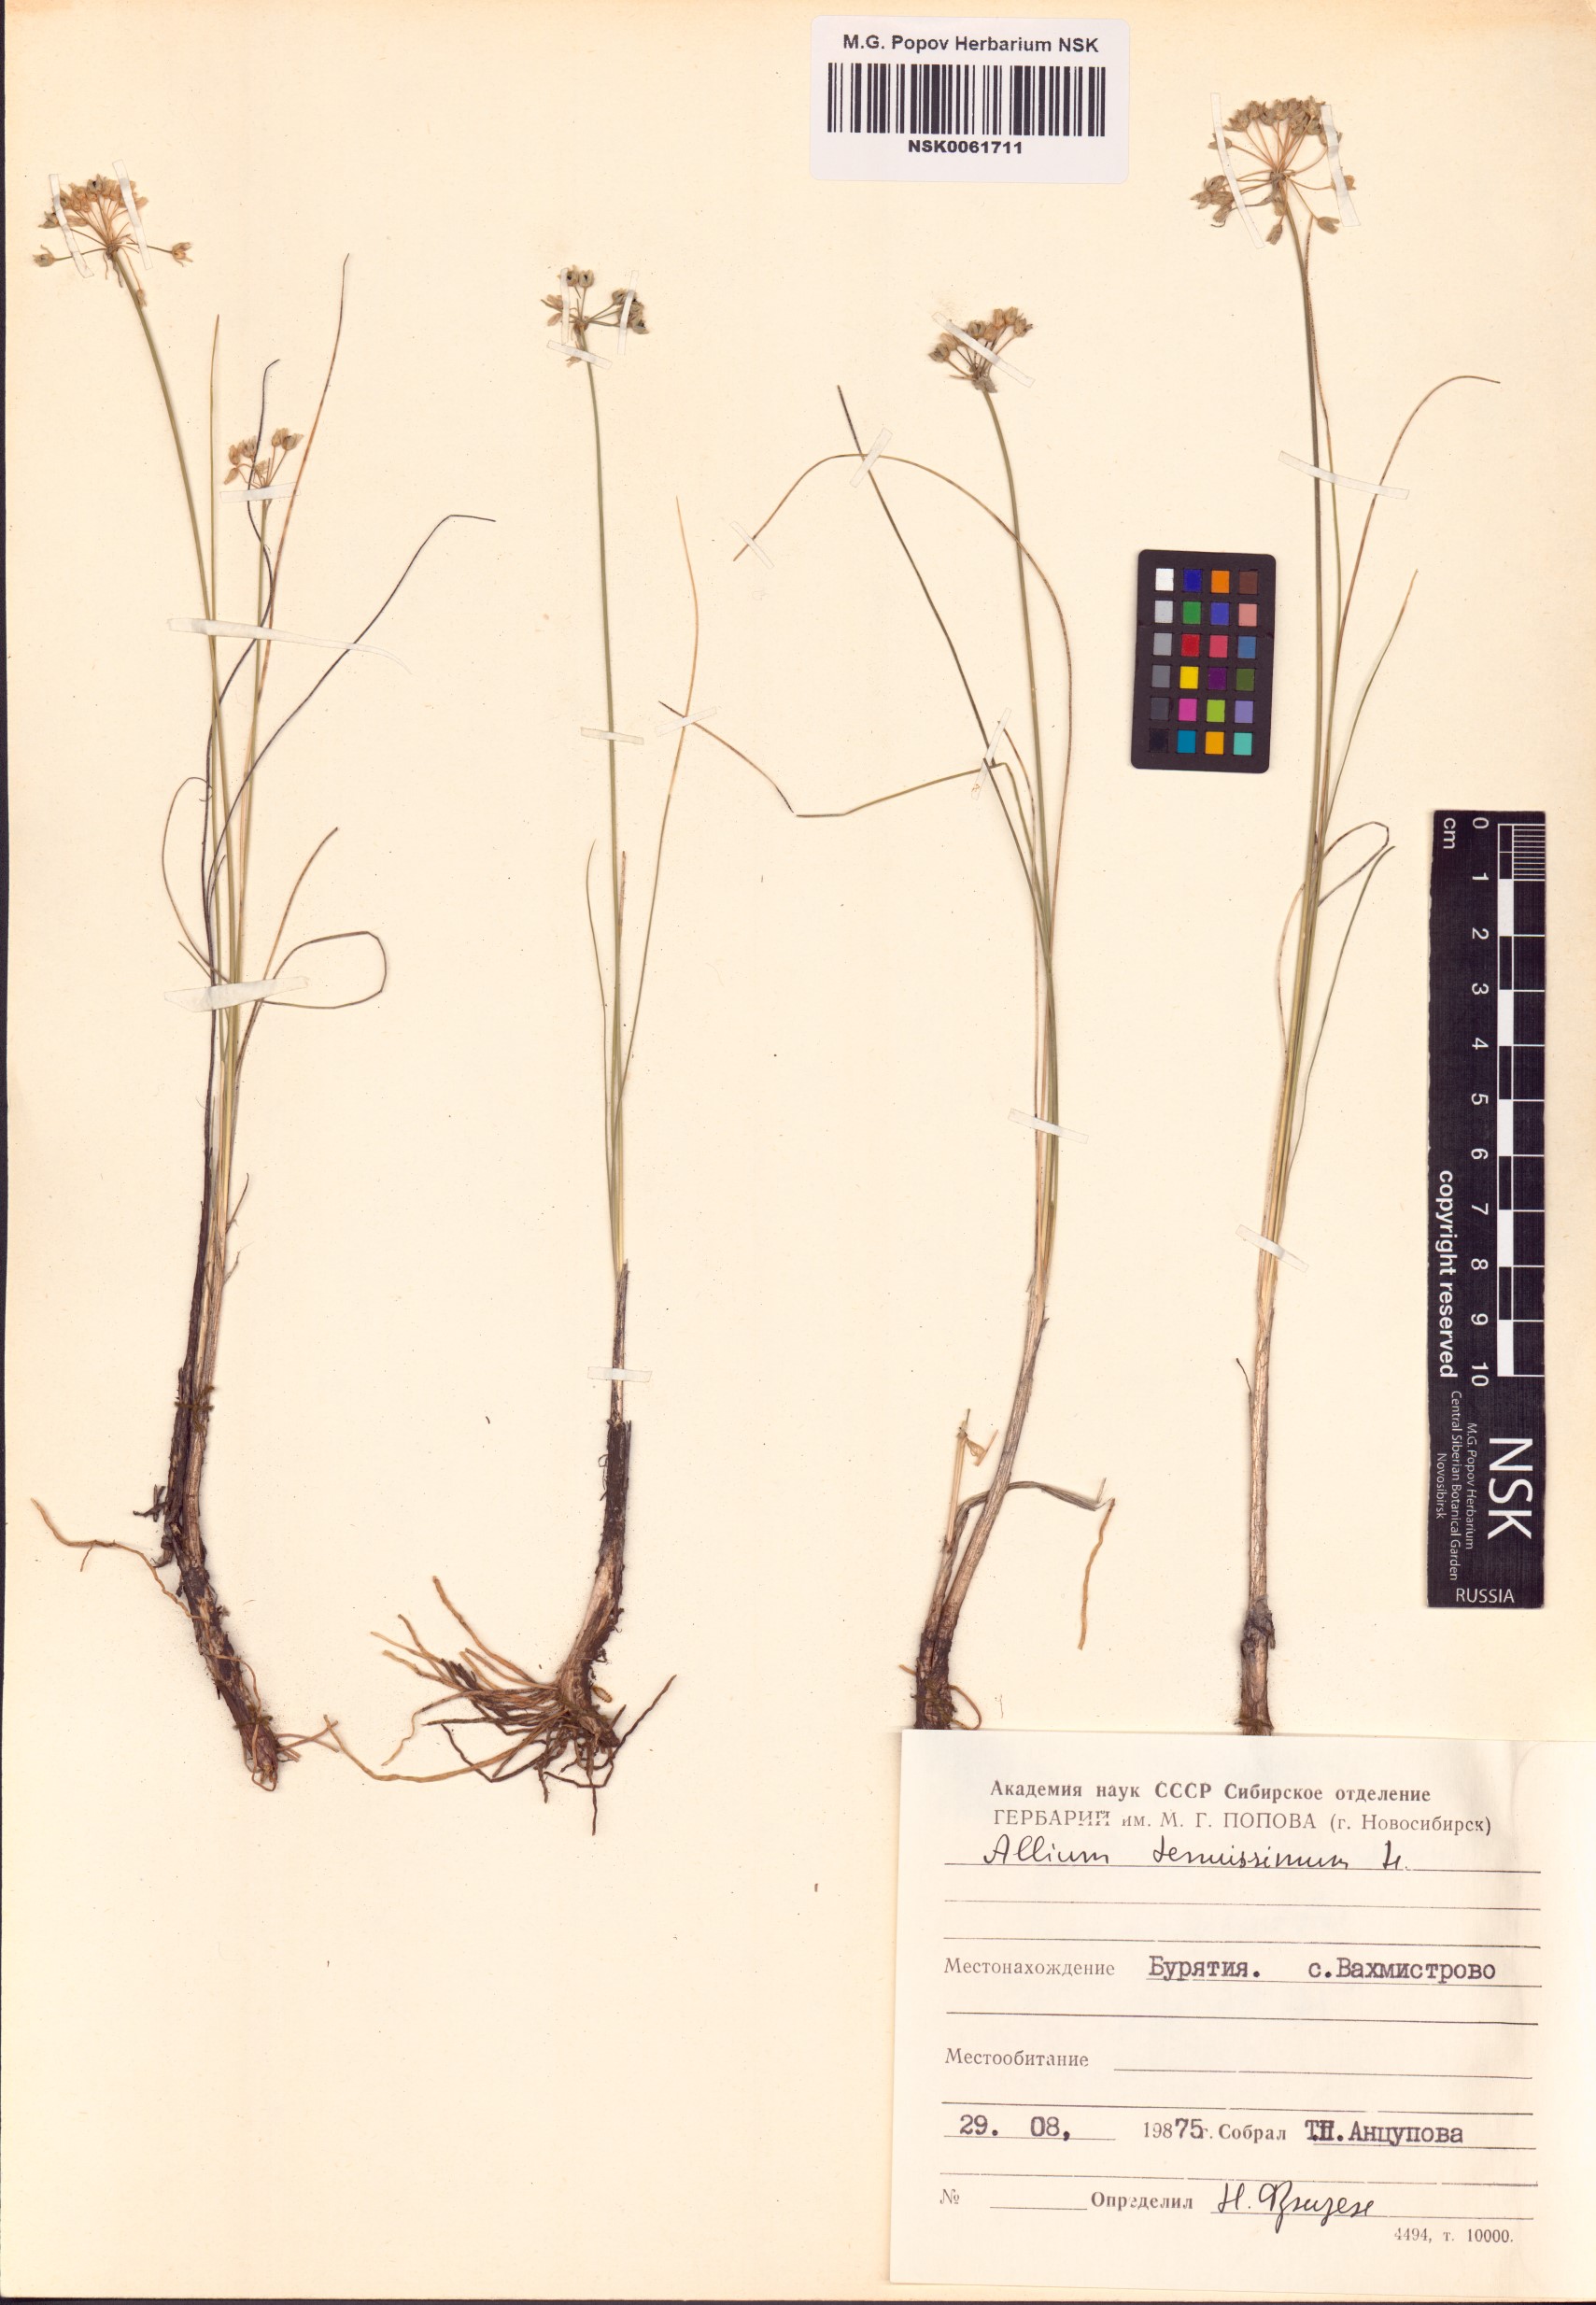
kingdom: Plantae
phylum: Tracheophyta
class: Liliopsida
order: Asparagales
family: Amaryllidaceae
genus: Allium
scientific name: Allium tenuissimum
